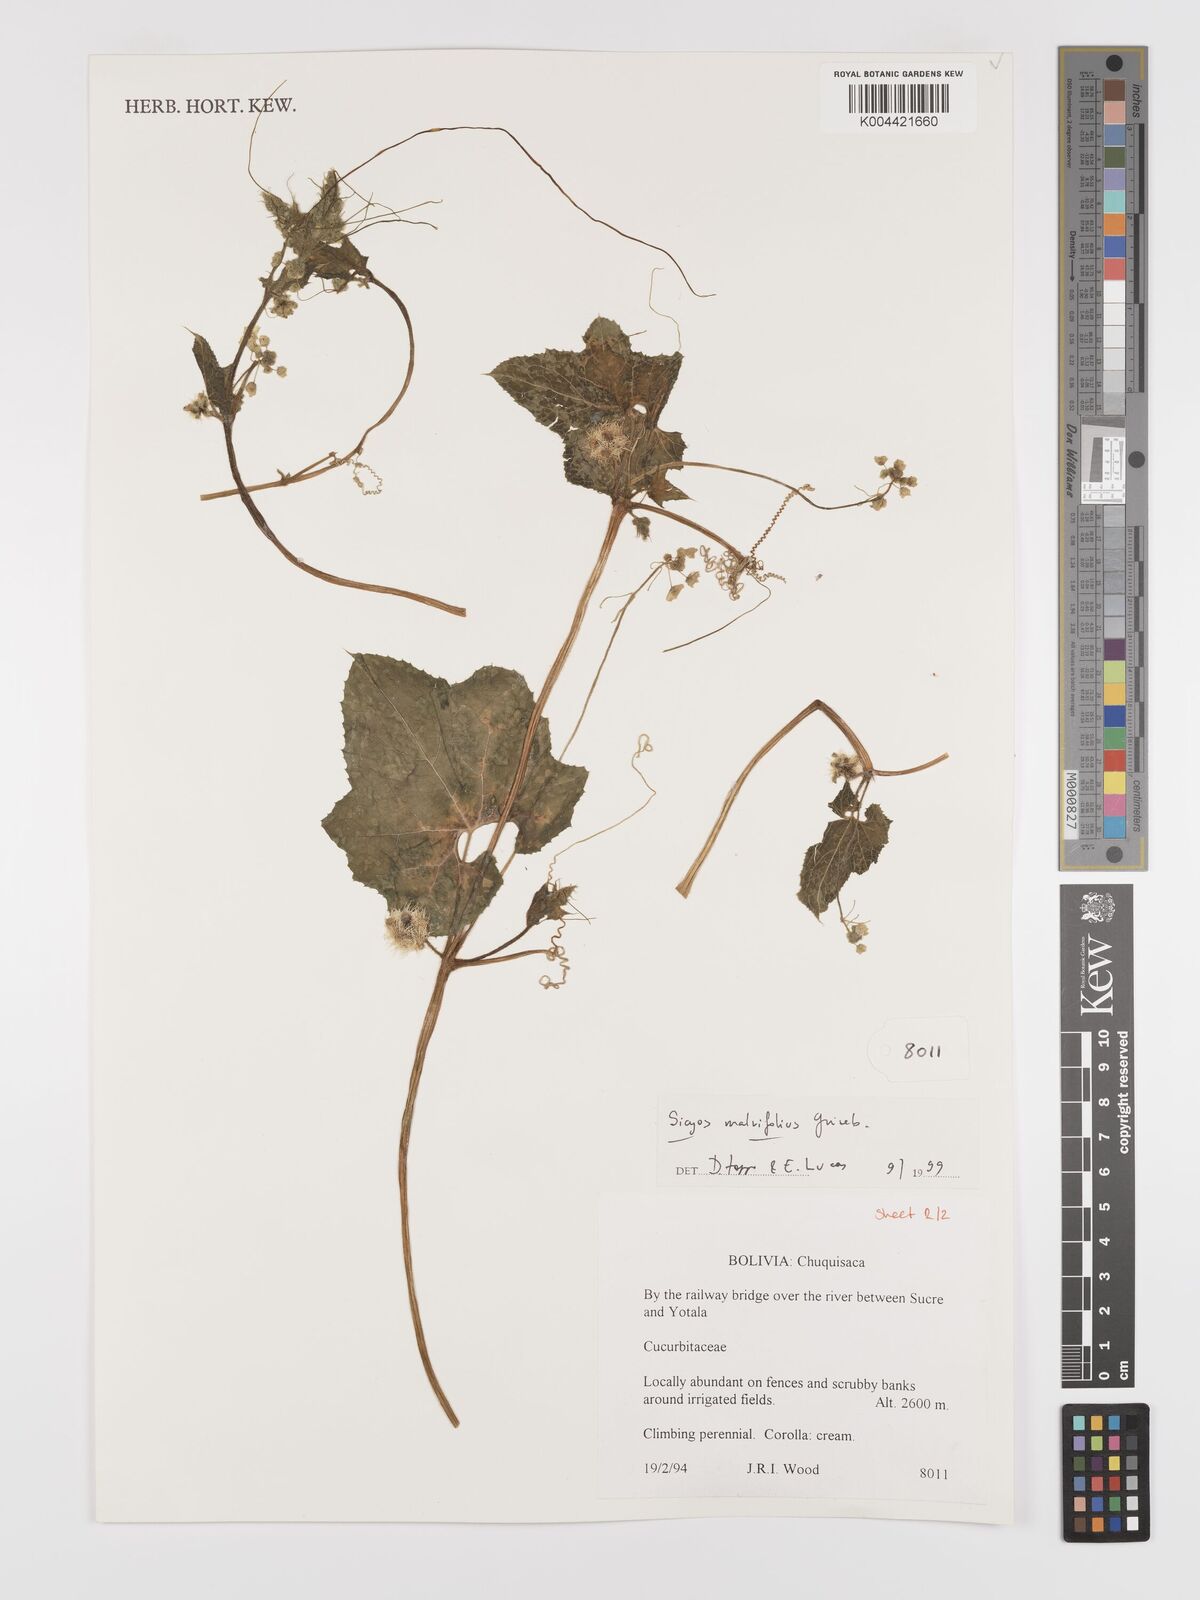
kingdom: Plantae
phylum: Tracheophyta
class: Magnoliopsida
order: Cucurbitales
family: Cucurbitaceae
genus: Sicyos
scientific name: Sicyos malvifolius
